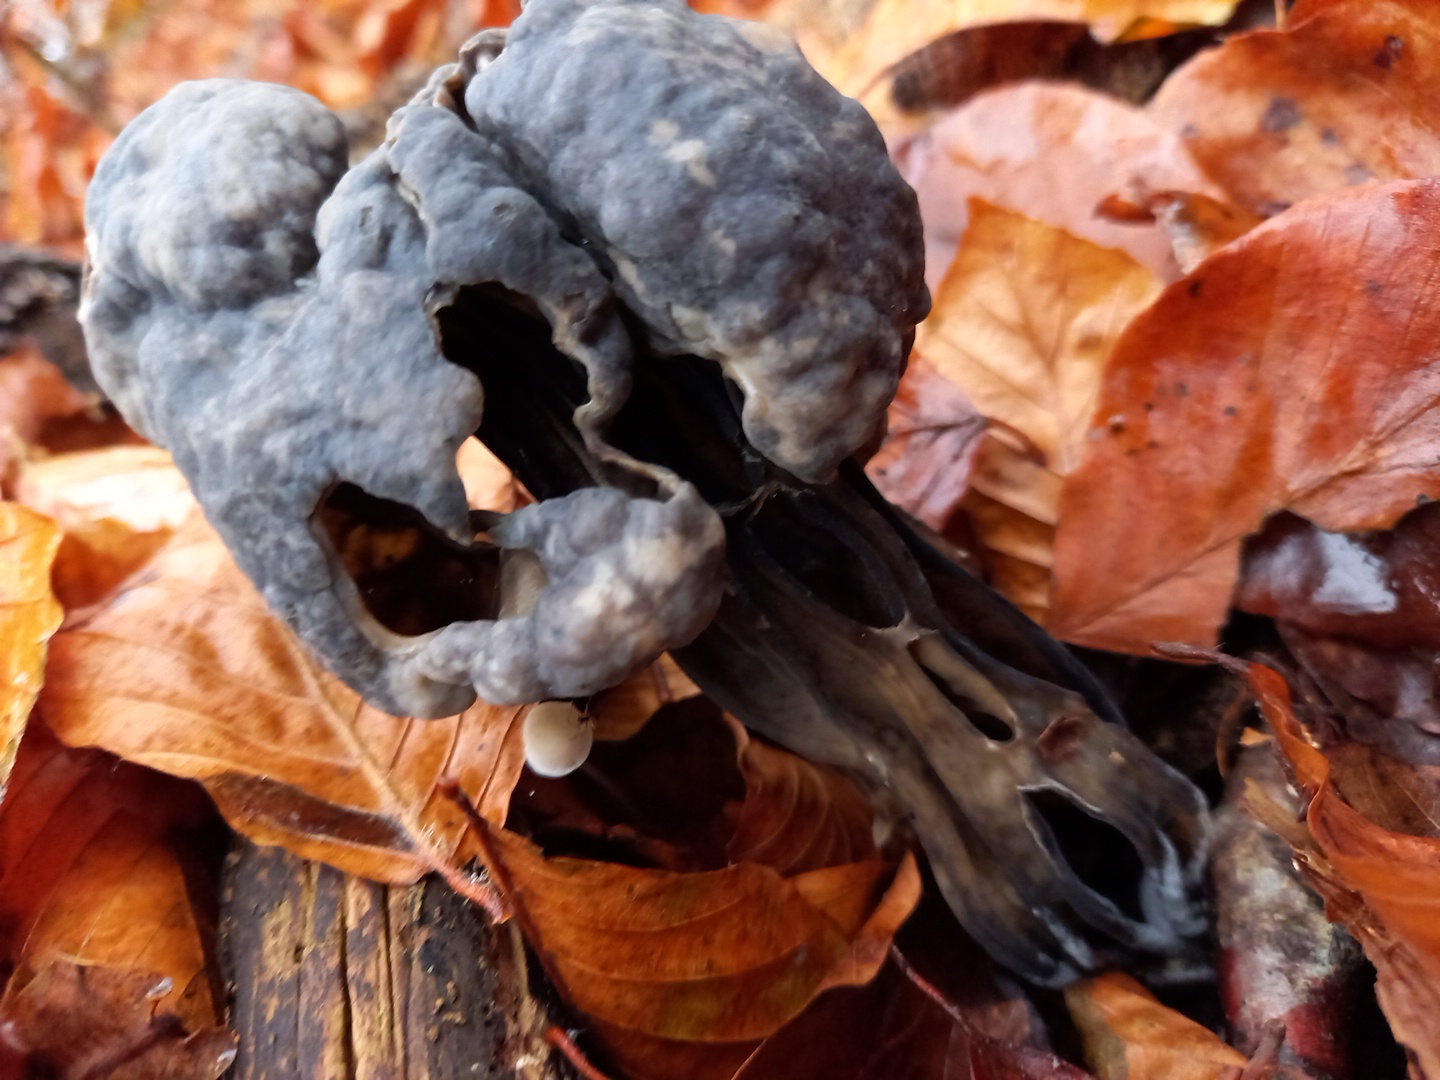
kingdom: Fungi
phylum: Ascomycota
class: Pezizomycetes
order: Pezizales
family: Helvellaceae
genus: Helvella
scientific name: Helvella lacunosa
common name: grubet foldhat
